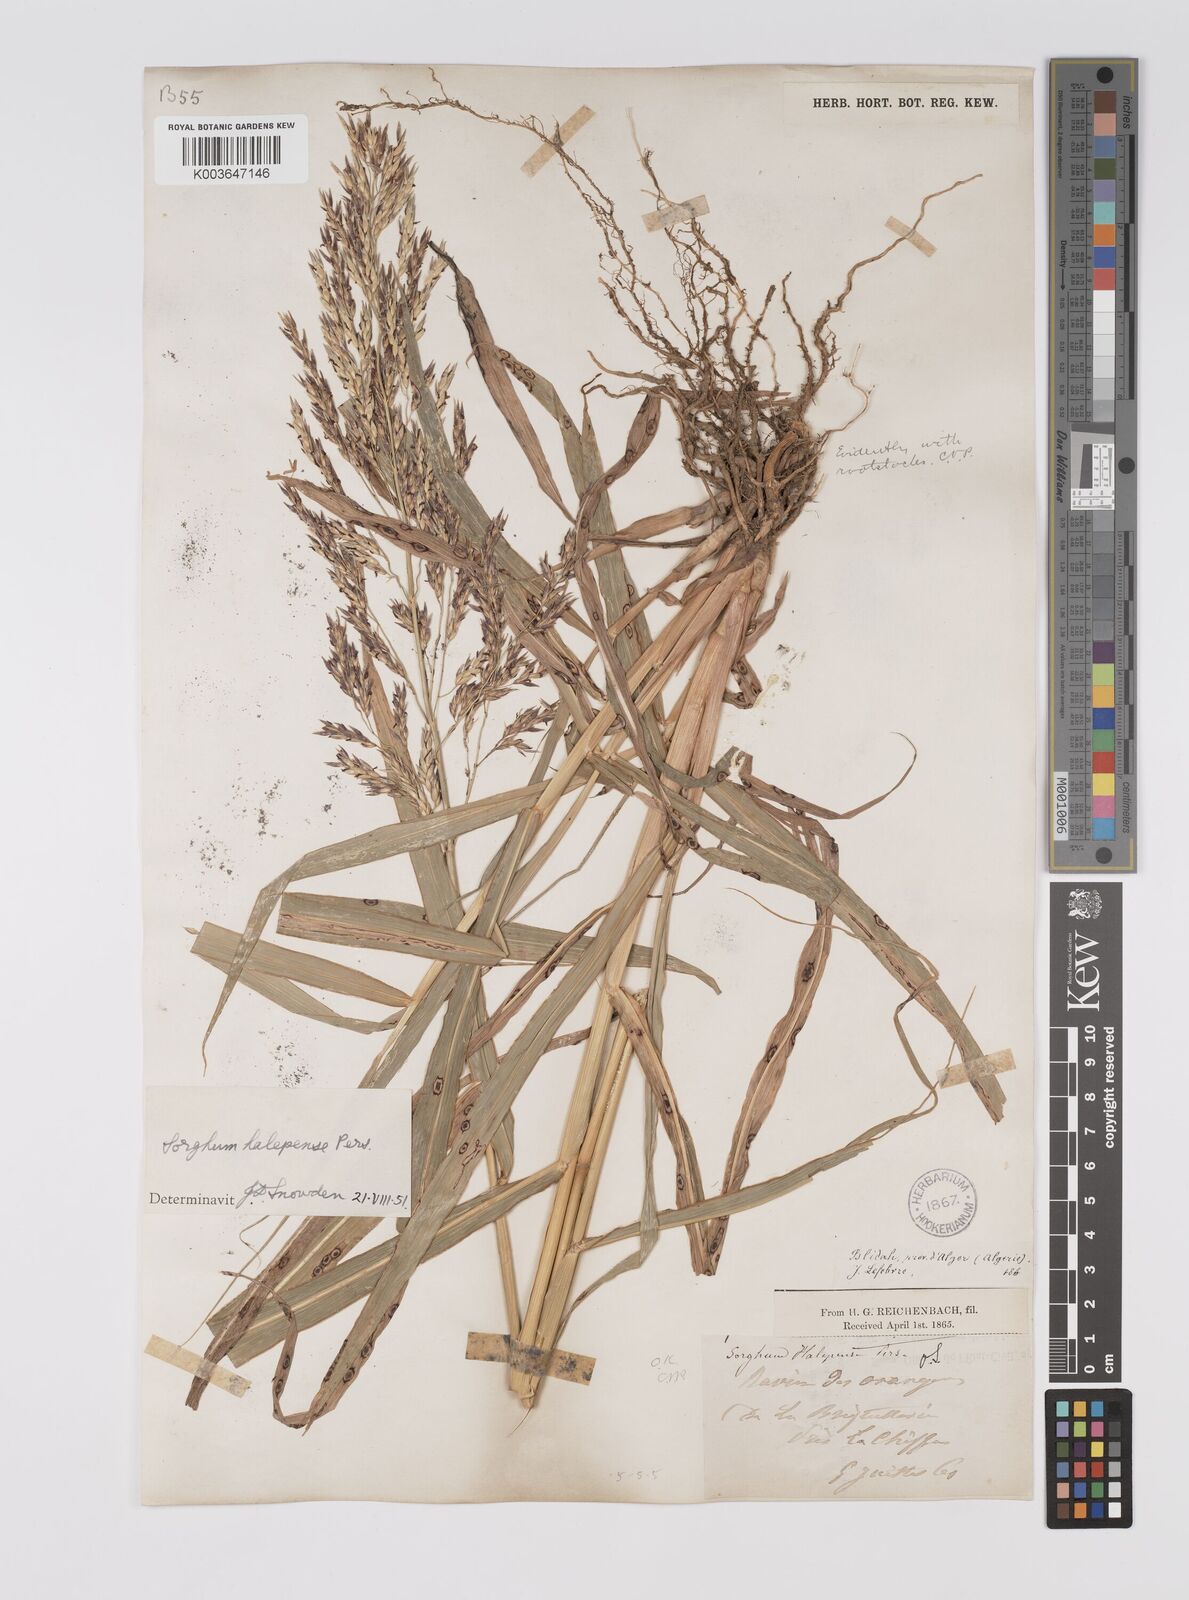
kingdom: Plantae
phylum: Tracheophyta
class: Liliopsida
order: Poales
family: Poaceae
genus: Sorghum
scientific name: Sorghum halepense
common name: Johnson-grass
